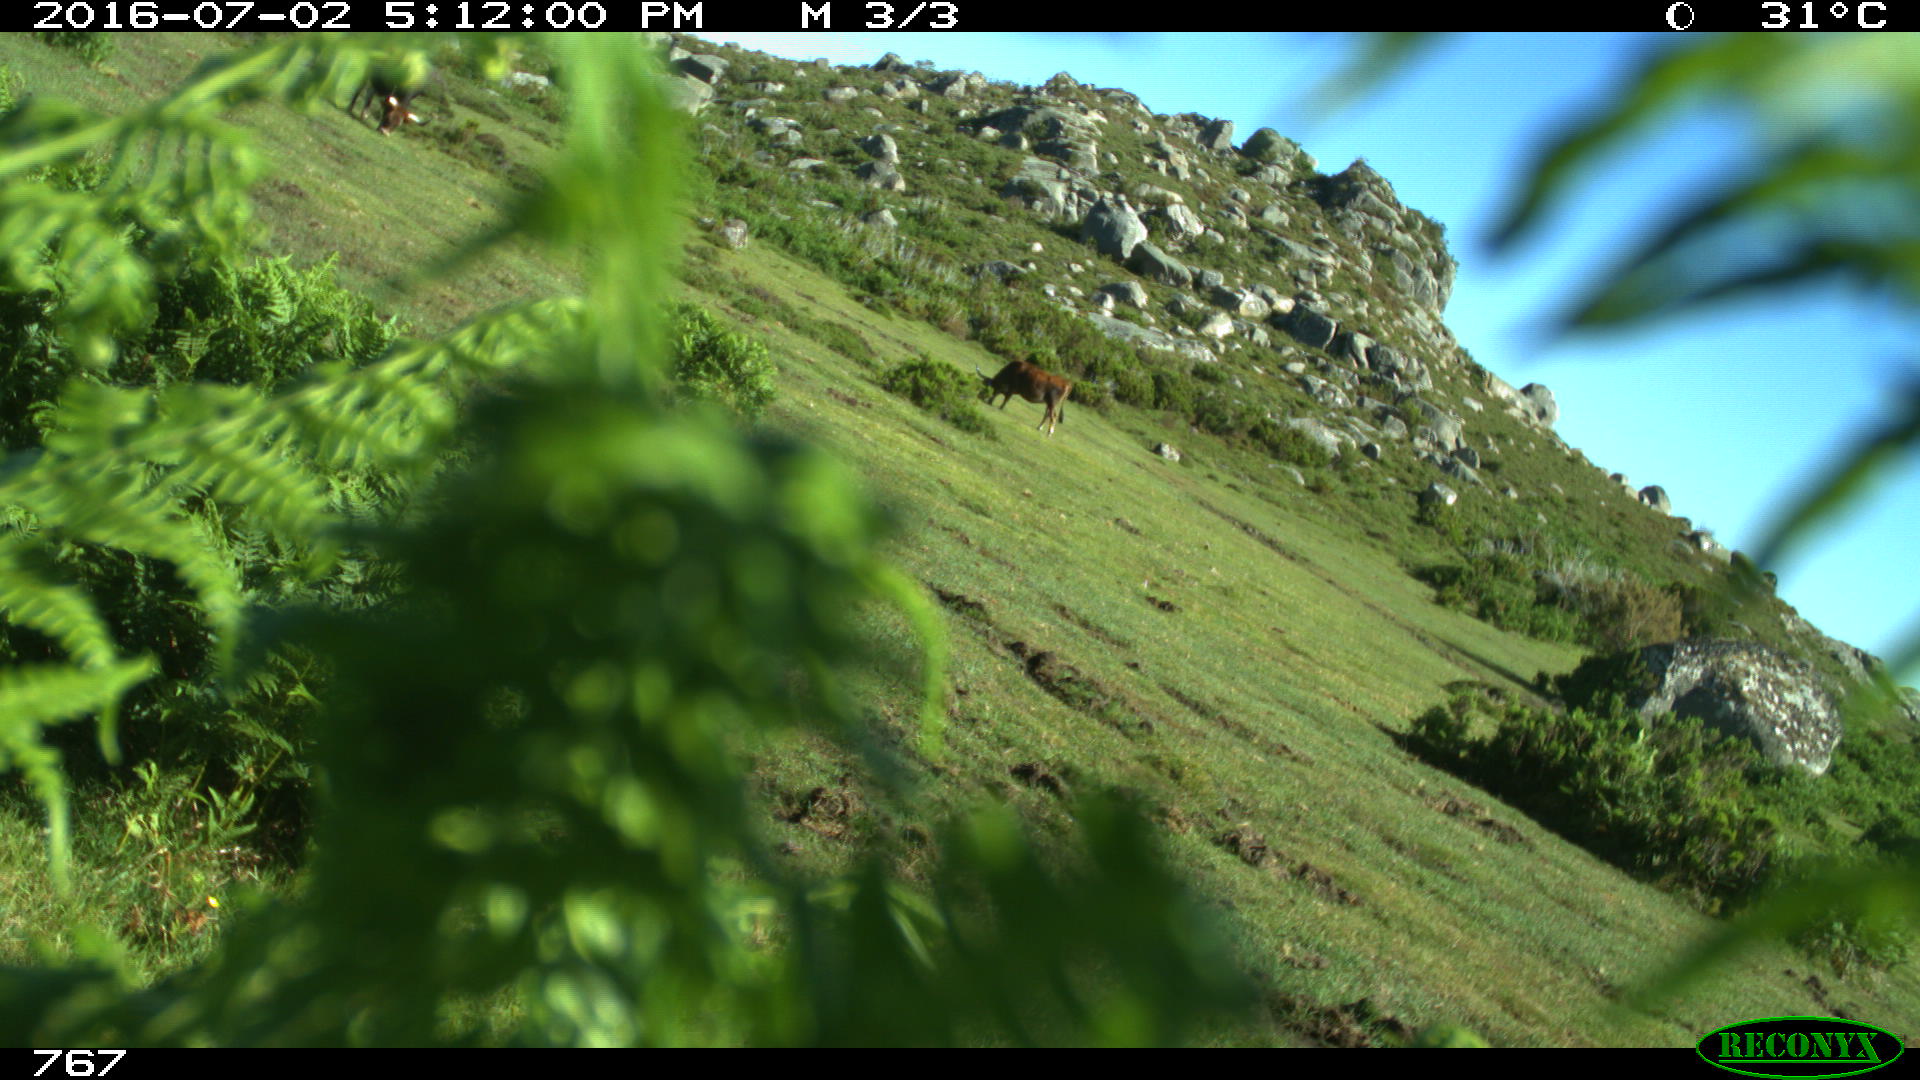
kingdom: Animalia
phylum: Chordata
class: Mammalia
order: Artiodactyla
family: Bovidae
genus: Bos
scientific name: Bos taurus
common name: Domesticated cattle
